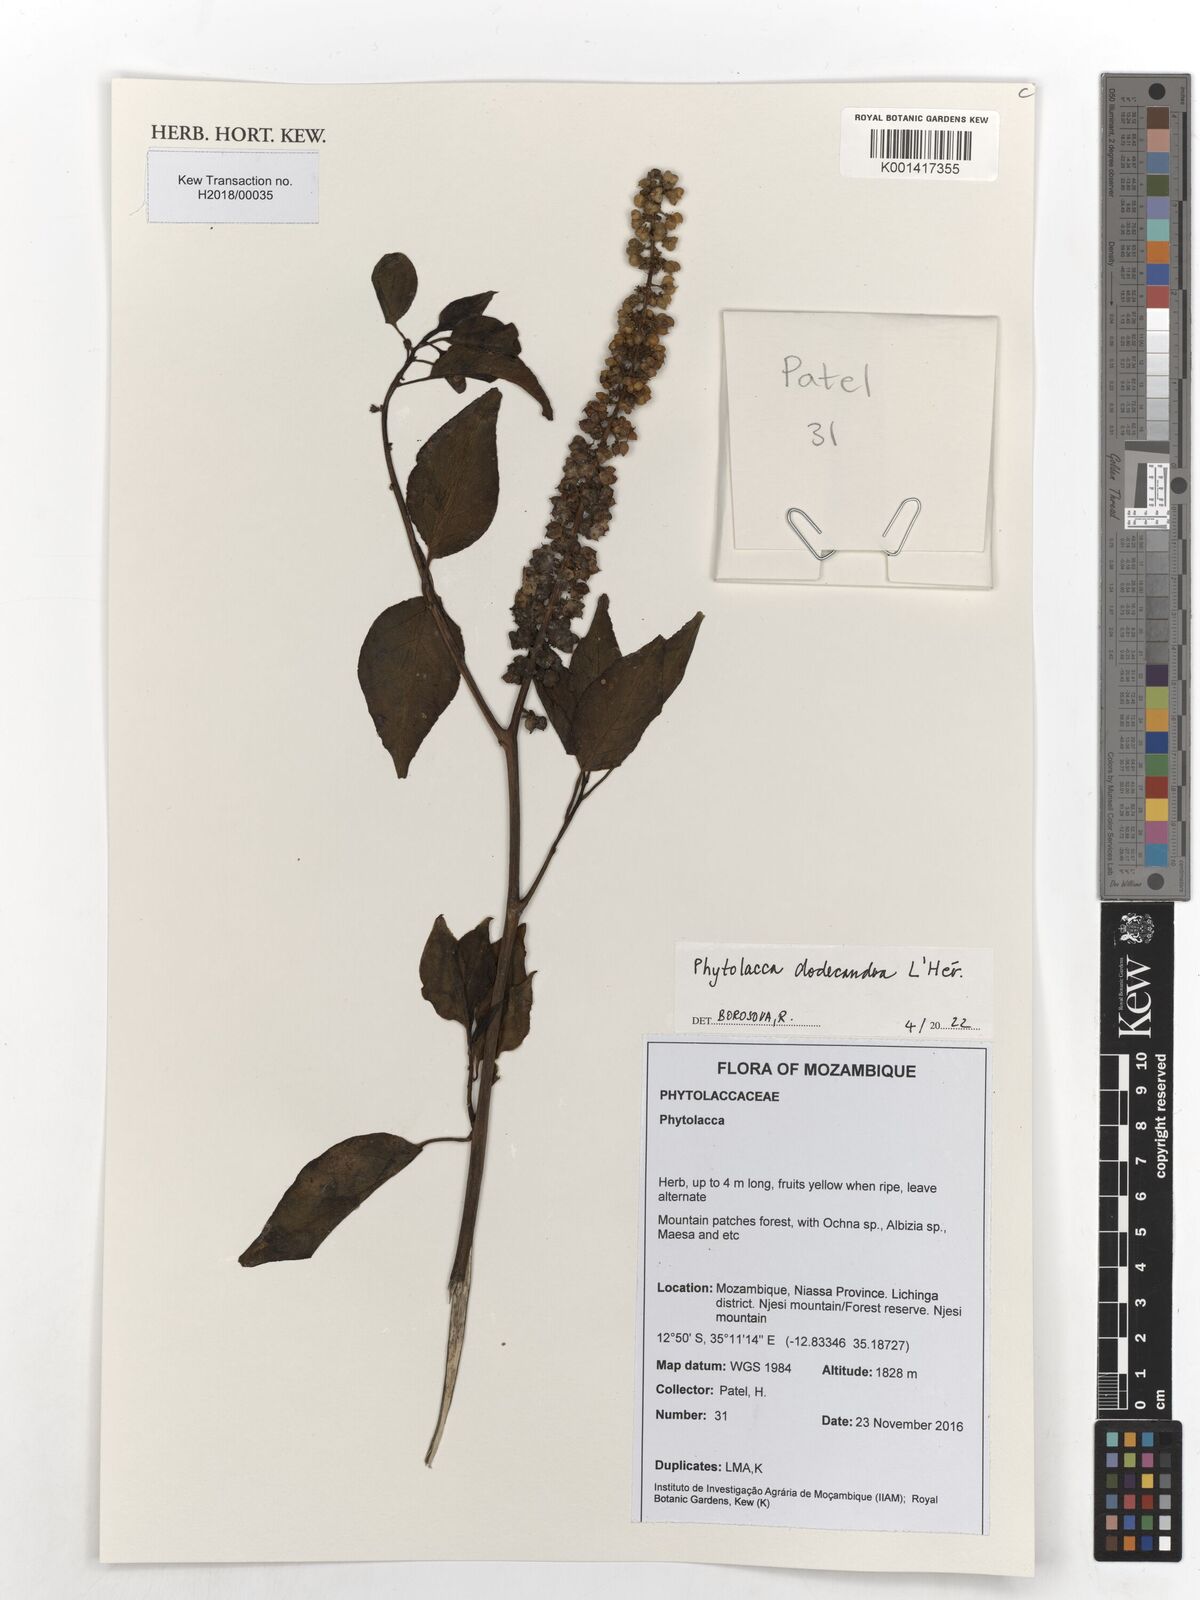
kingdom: Plantae
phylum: Tracheophyta
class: Magnoliopsida
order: Caryophyllales
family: Phytolaccaceae
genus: Phytolacca
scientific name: Phytolacca dodecandra
